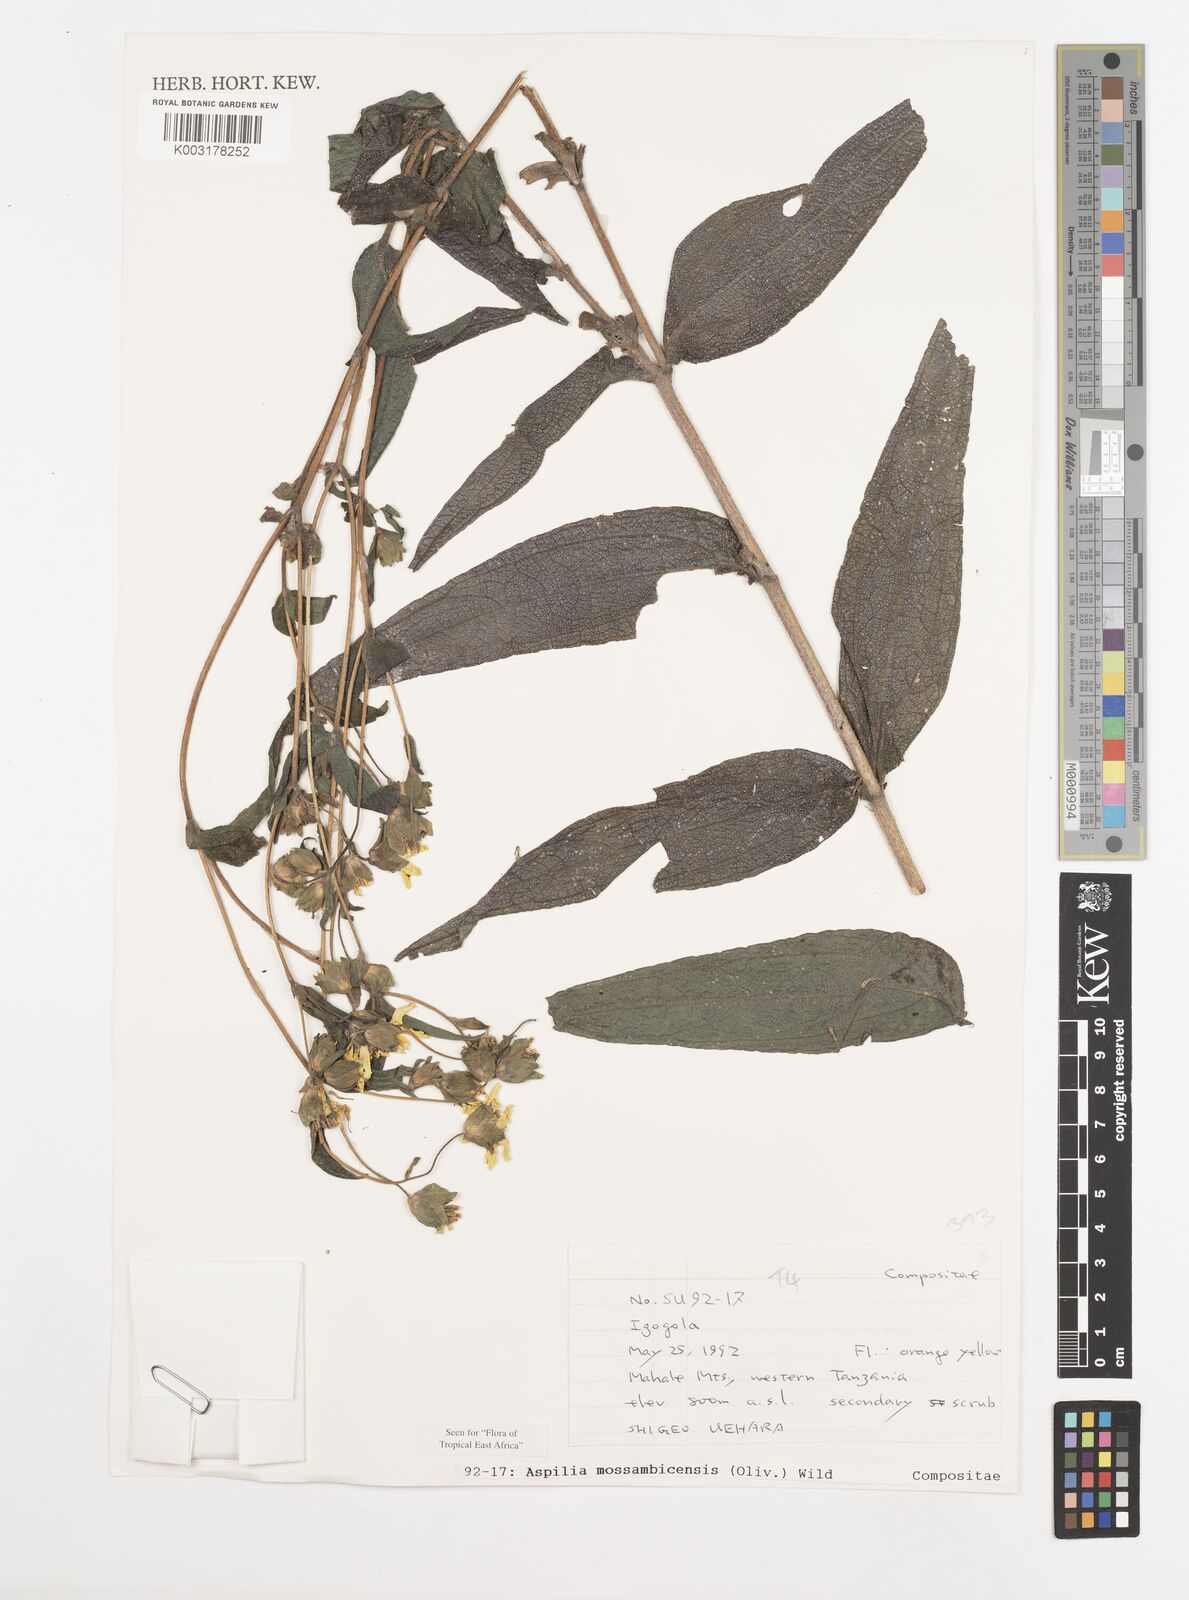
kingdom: Plantae
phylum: Tracheophyta
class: Magnoliopsida
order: Asterales
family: Asteraceae
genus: Aspilia
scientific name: Aspilia mossambicensis
